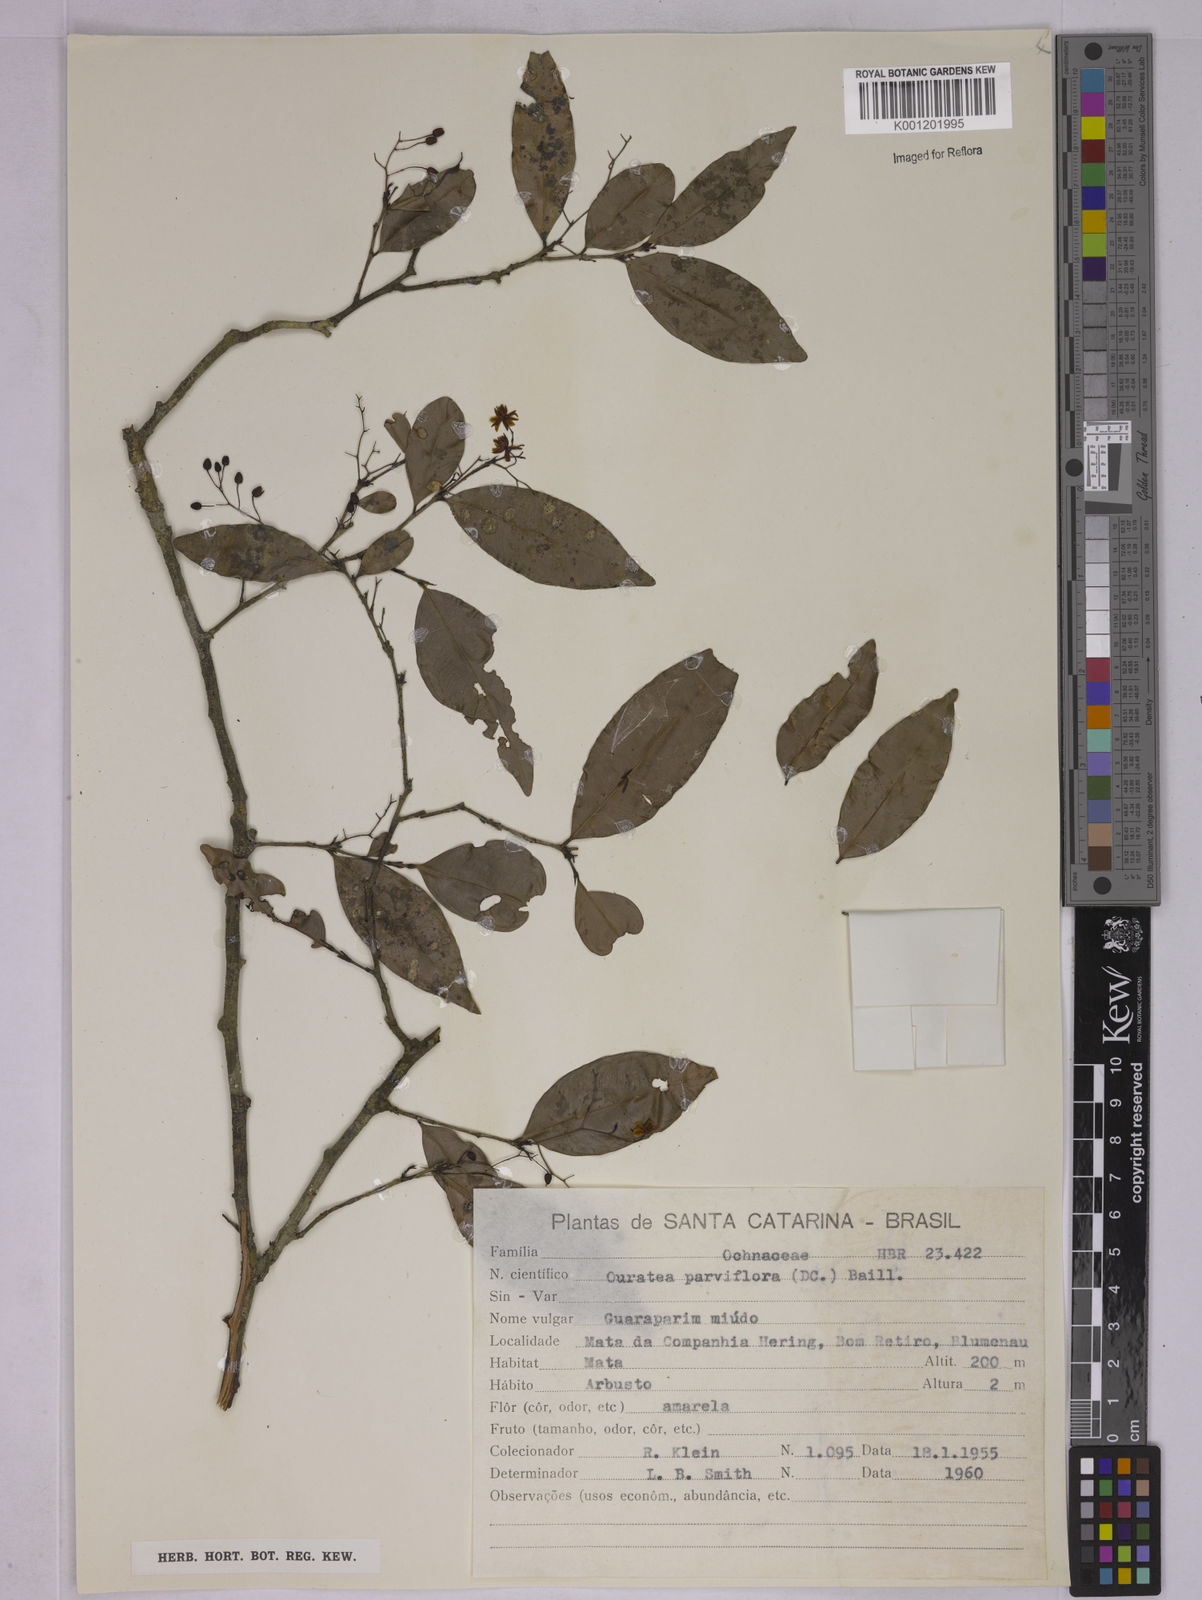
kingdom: Plantae
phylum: Tracheophyta
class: Magnoliopsida
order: Malpighiales
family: Ochnaceae
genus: Ouratea
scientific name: Ouratea parviflora
